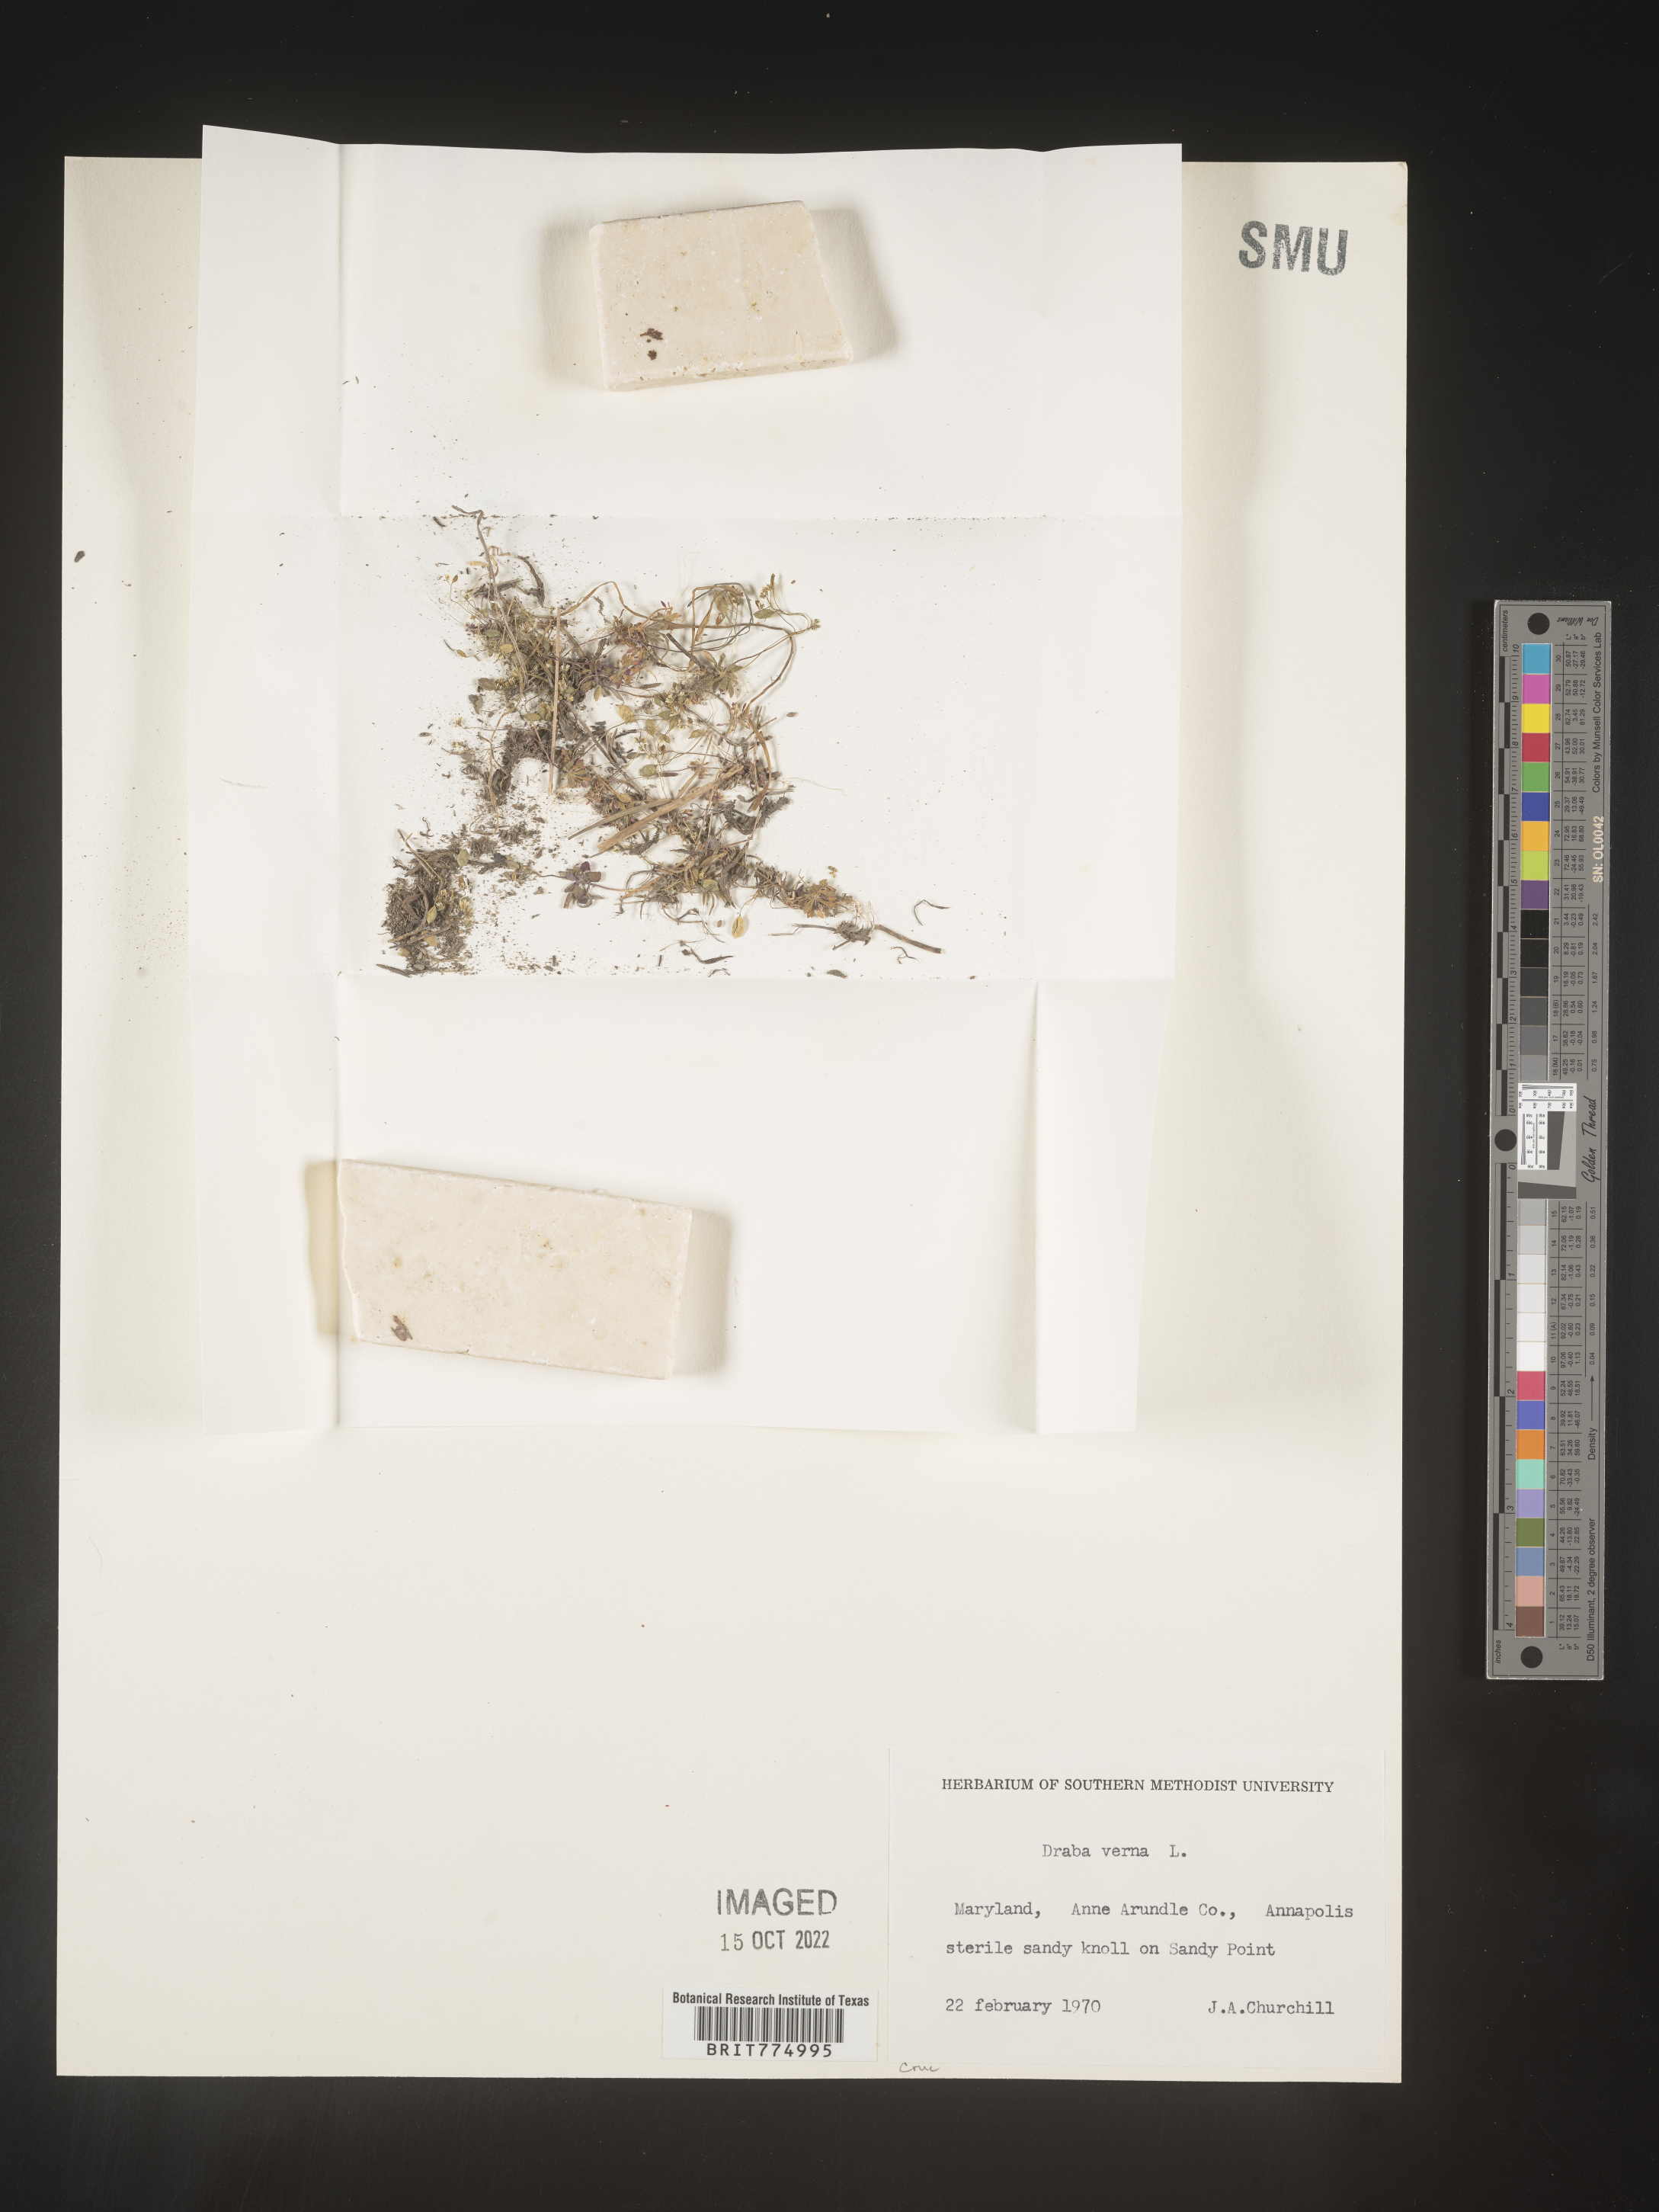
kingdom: Plantae
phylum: Tracheophyta
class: Magnoliopsida
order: Brassicales
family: Brassicaceae
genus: Draba
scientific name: Draba verna
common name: Spring draba
